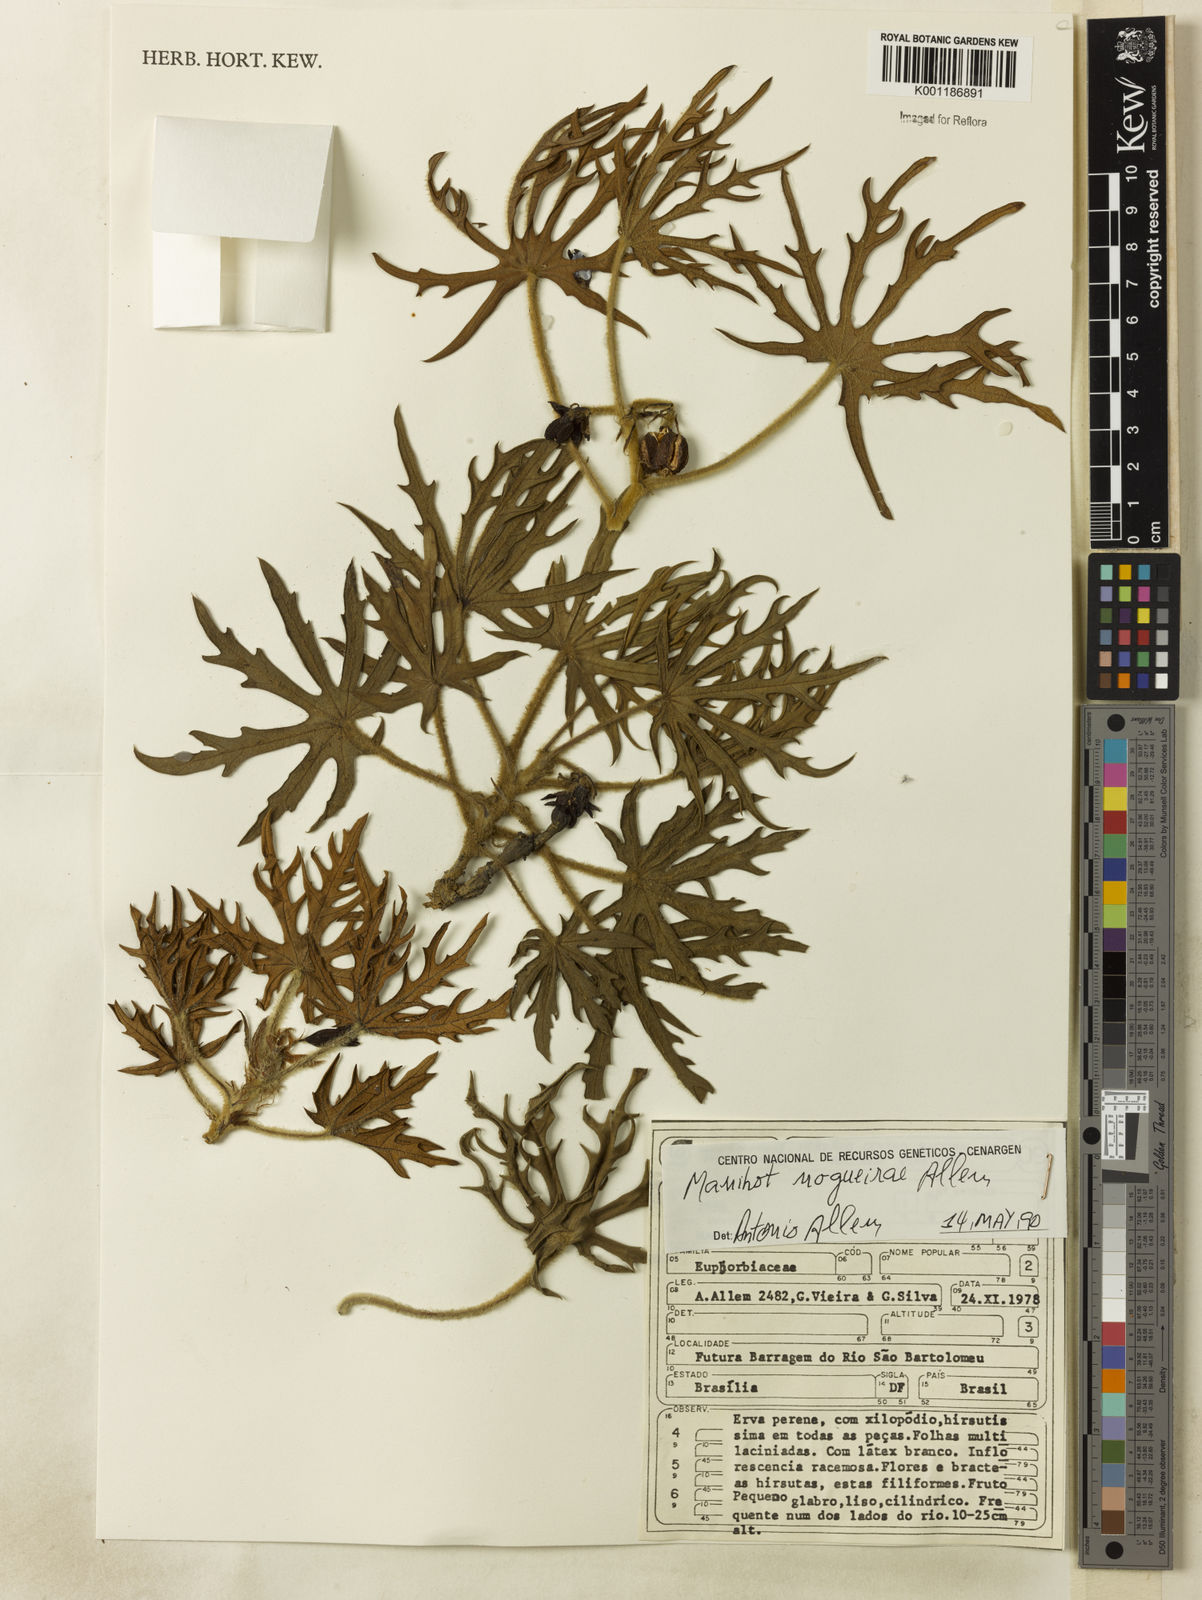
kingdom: Plantae
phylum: Tracheophyta
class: Magnoliopsida
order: Malpighiales
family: Euphorbiaceae
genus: Manihot
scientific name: Manihot nogueirae
